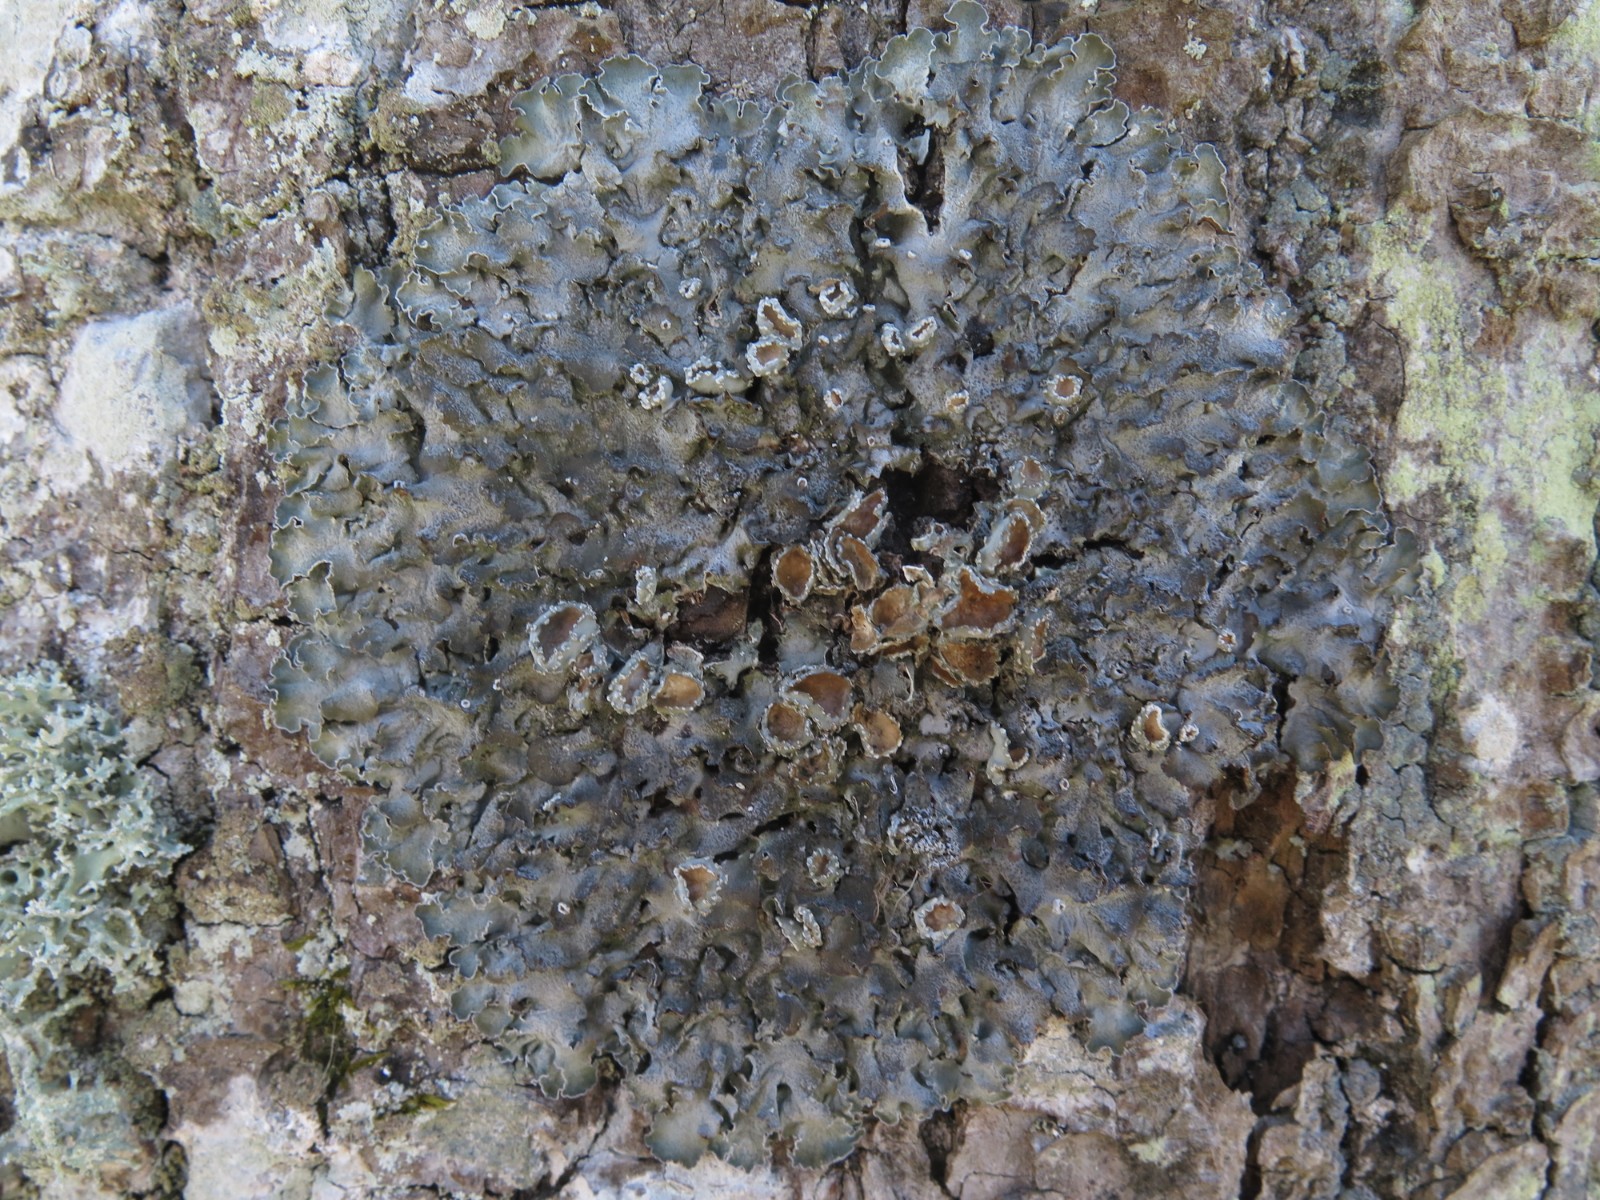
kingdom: Fungi
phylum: Ascomycota
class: Lecanoromycetes
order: Lecanorales
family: Parmeliaceae
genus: Pleurosticta
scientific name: Pleurosticta acetabulum
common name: stor skållav
